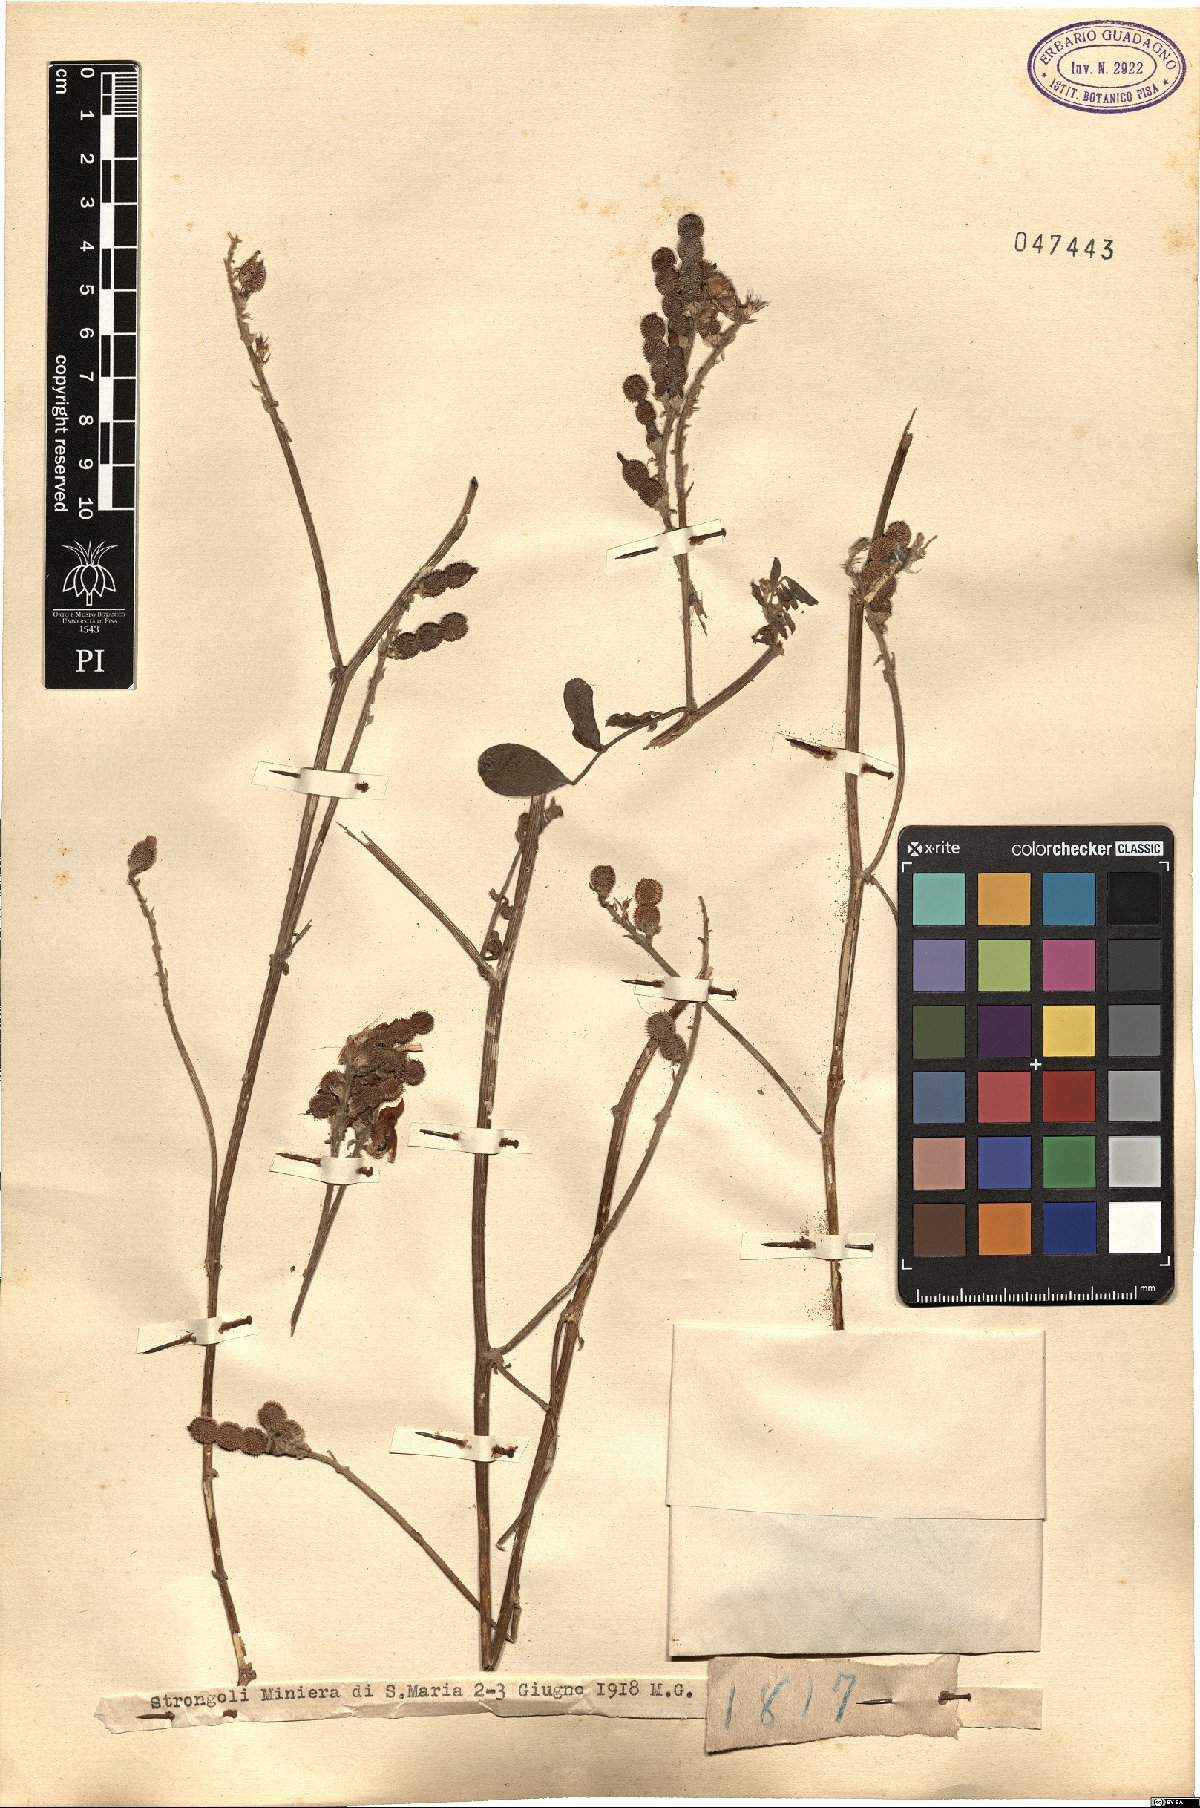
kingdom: Plantae
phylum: Tracheophyta
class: Magnoliopsida
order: Fabales
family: Fabaceae
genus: Hedysarum
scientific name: Hedysarum
